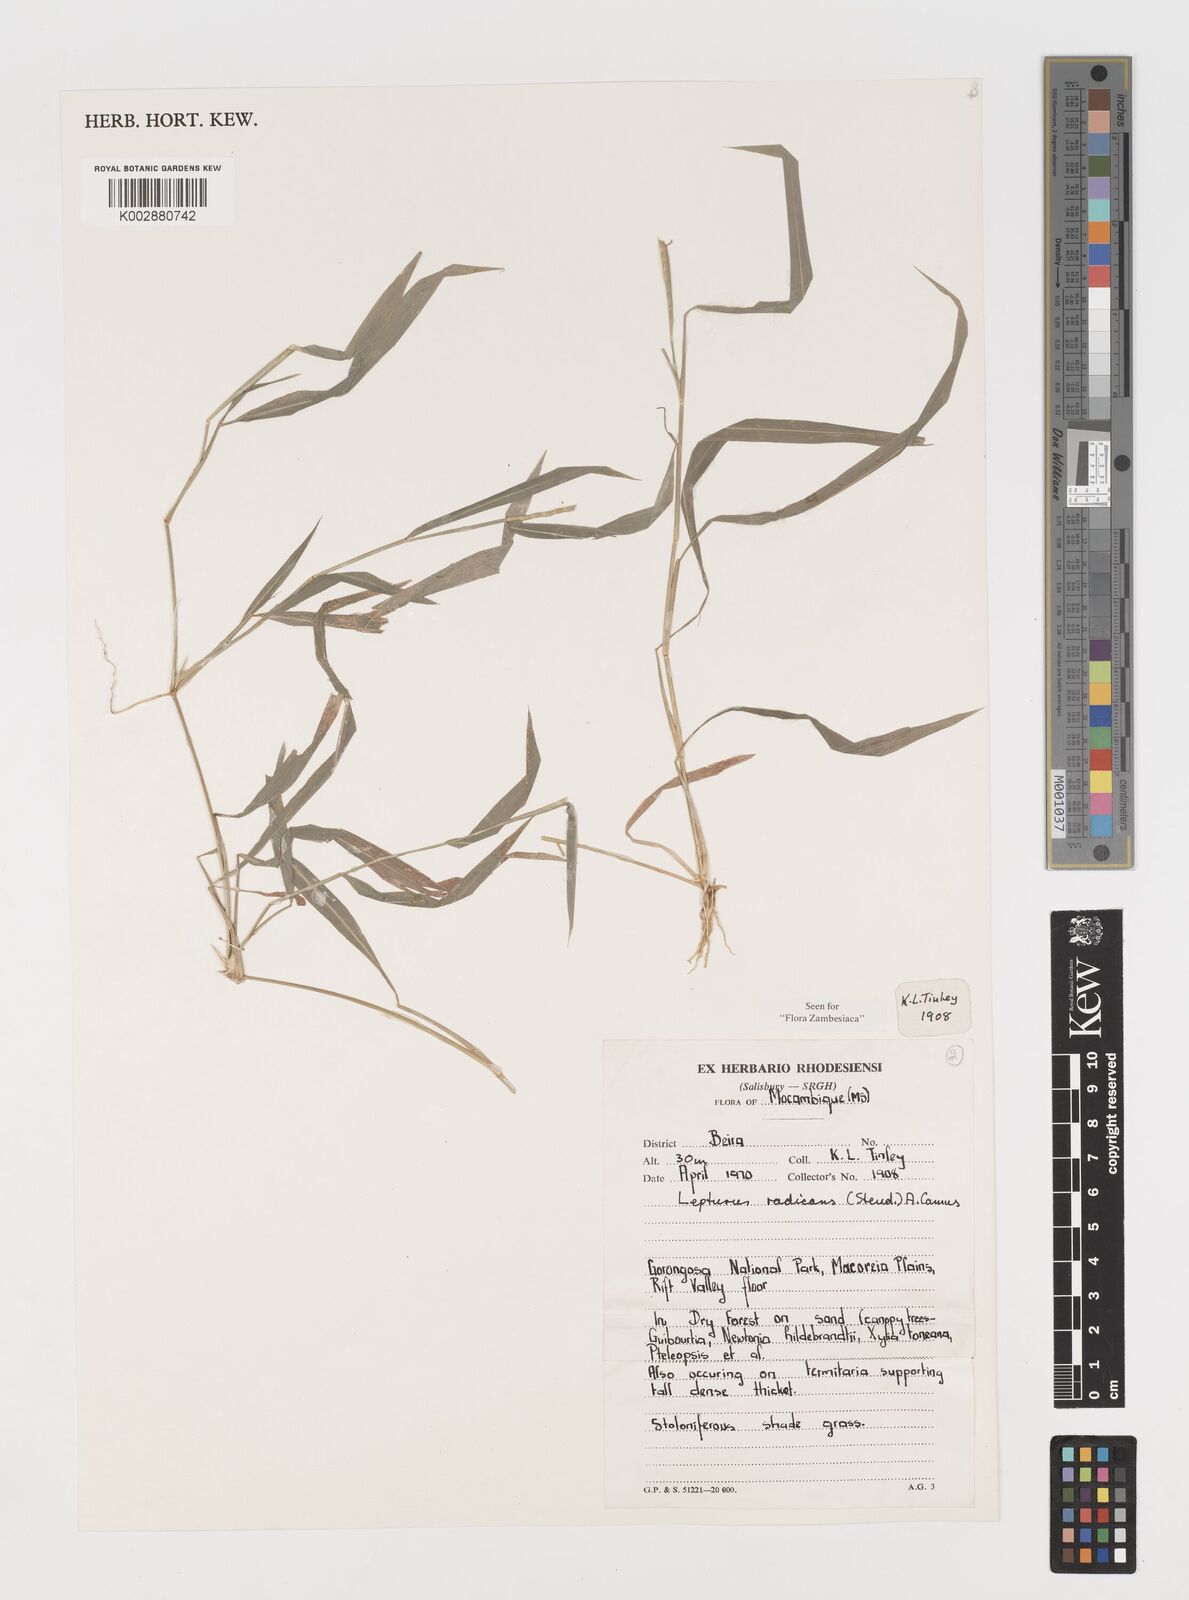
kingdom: Plantae
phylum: Tracheophyta
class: Liliopsida
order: Poales
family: Poaceae
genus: Lepturus
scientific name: Lepturus radicans
